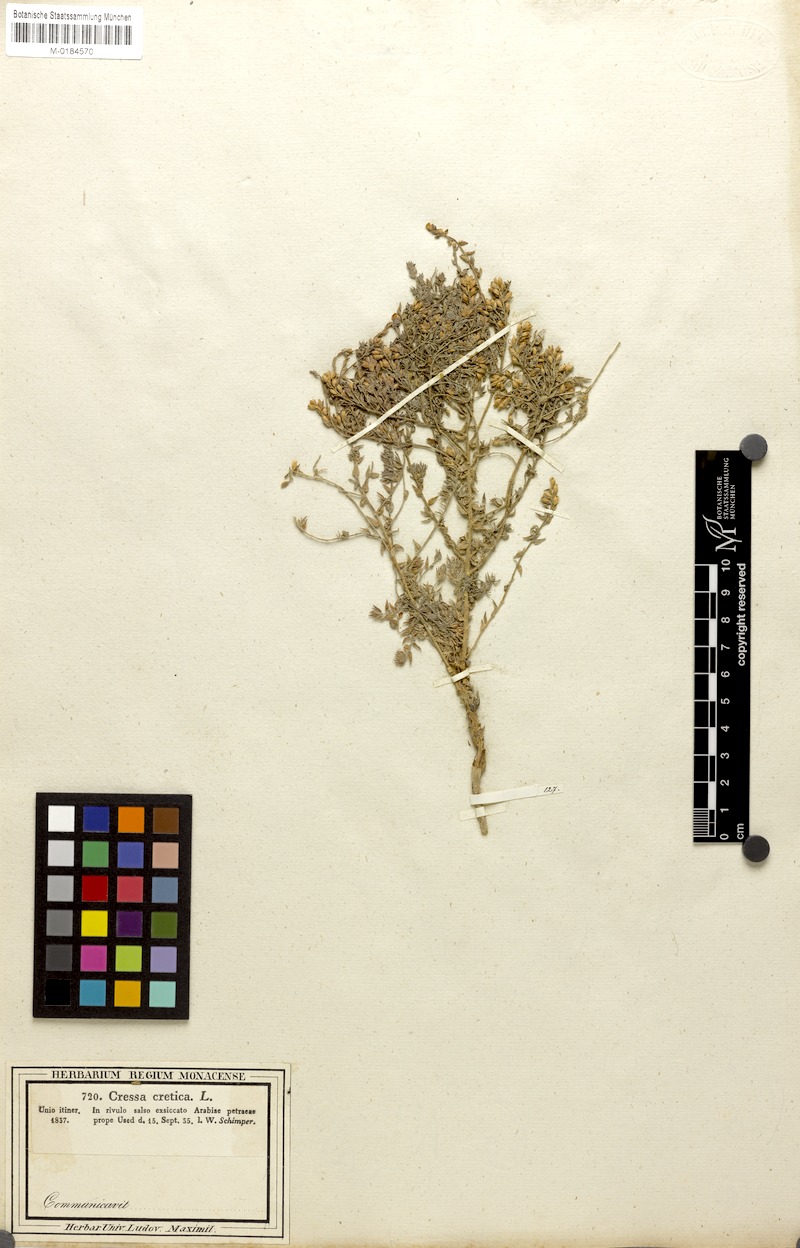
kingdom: Plantae
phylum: Tracheophyta
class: Magnoliopsida
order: Solanales
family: Convolvulaceae
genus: Cressa
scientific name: Cressa cretica
